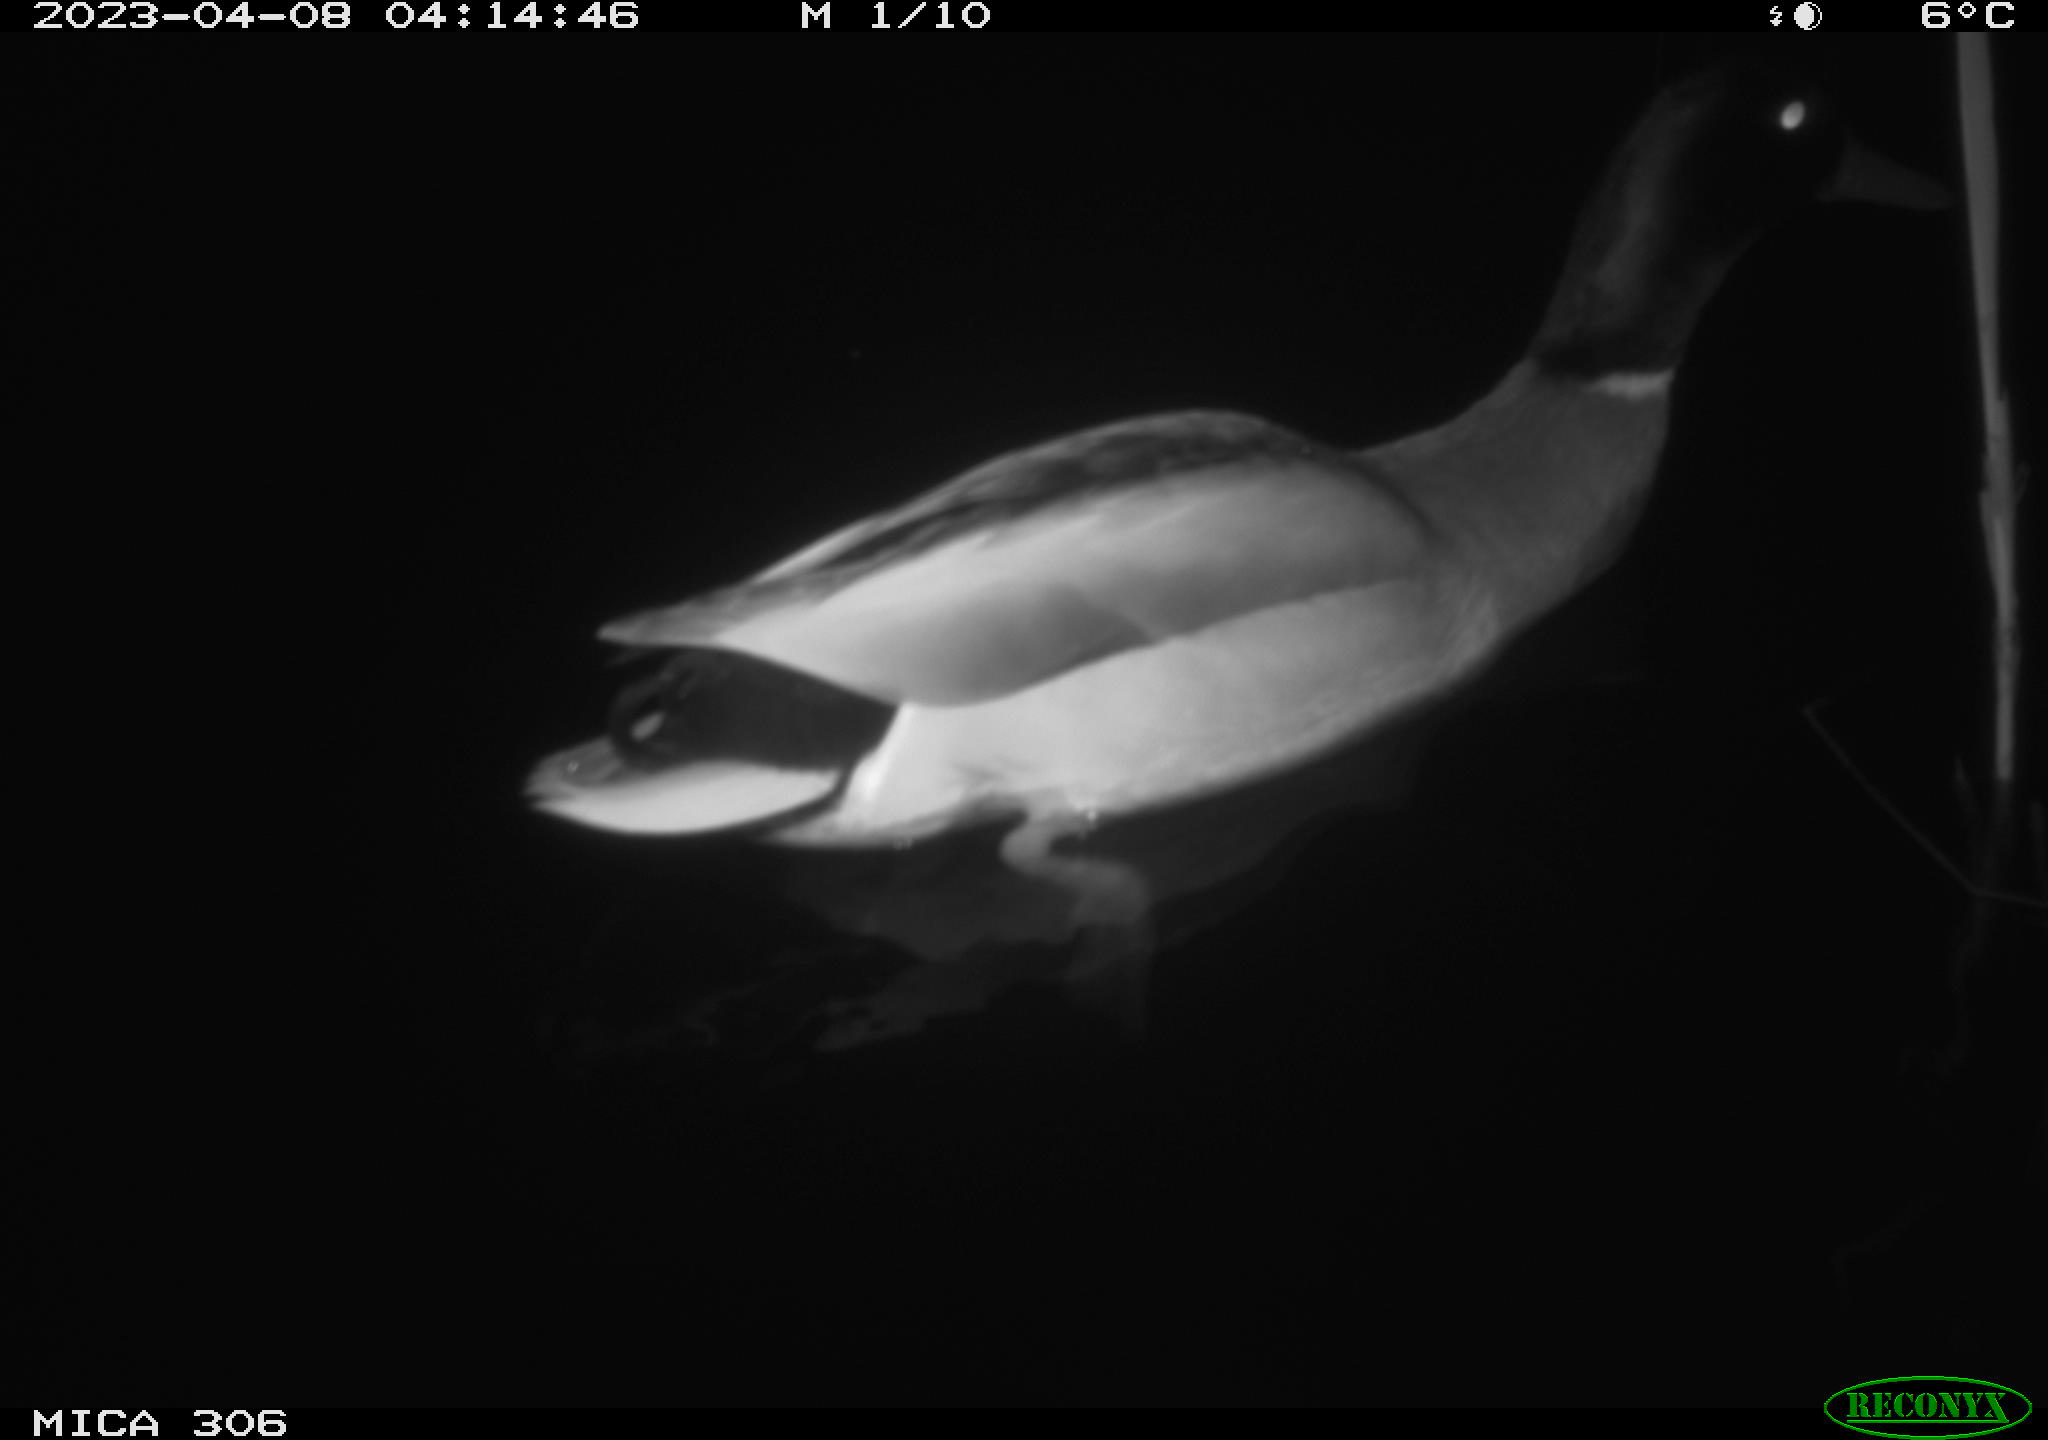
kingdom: Animalia
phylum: Chordata
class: Aves
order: Anseriformes
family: Anatidae
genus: Anas
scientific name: Anas
